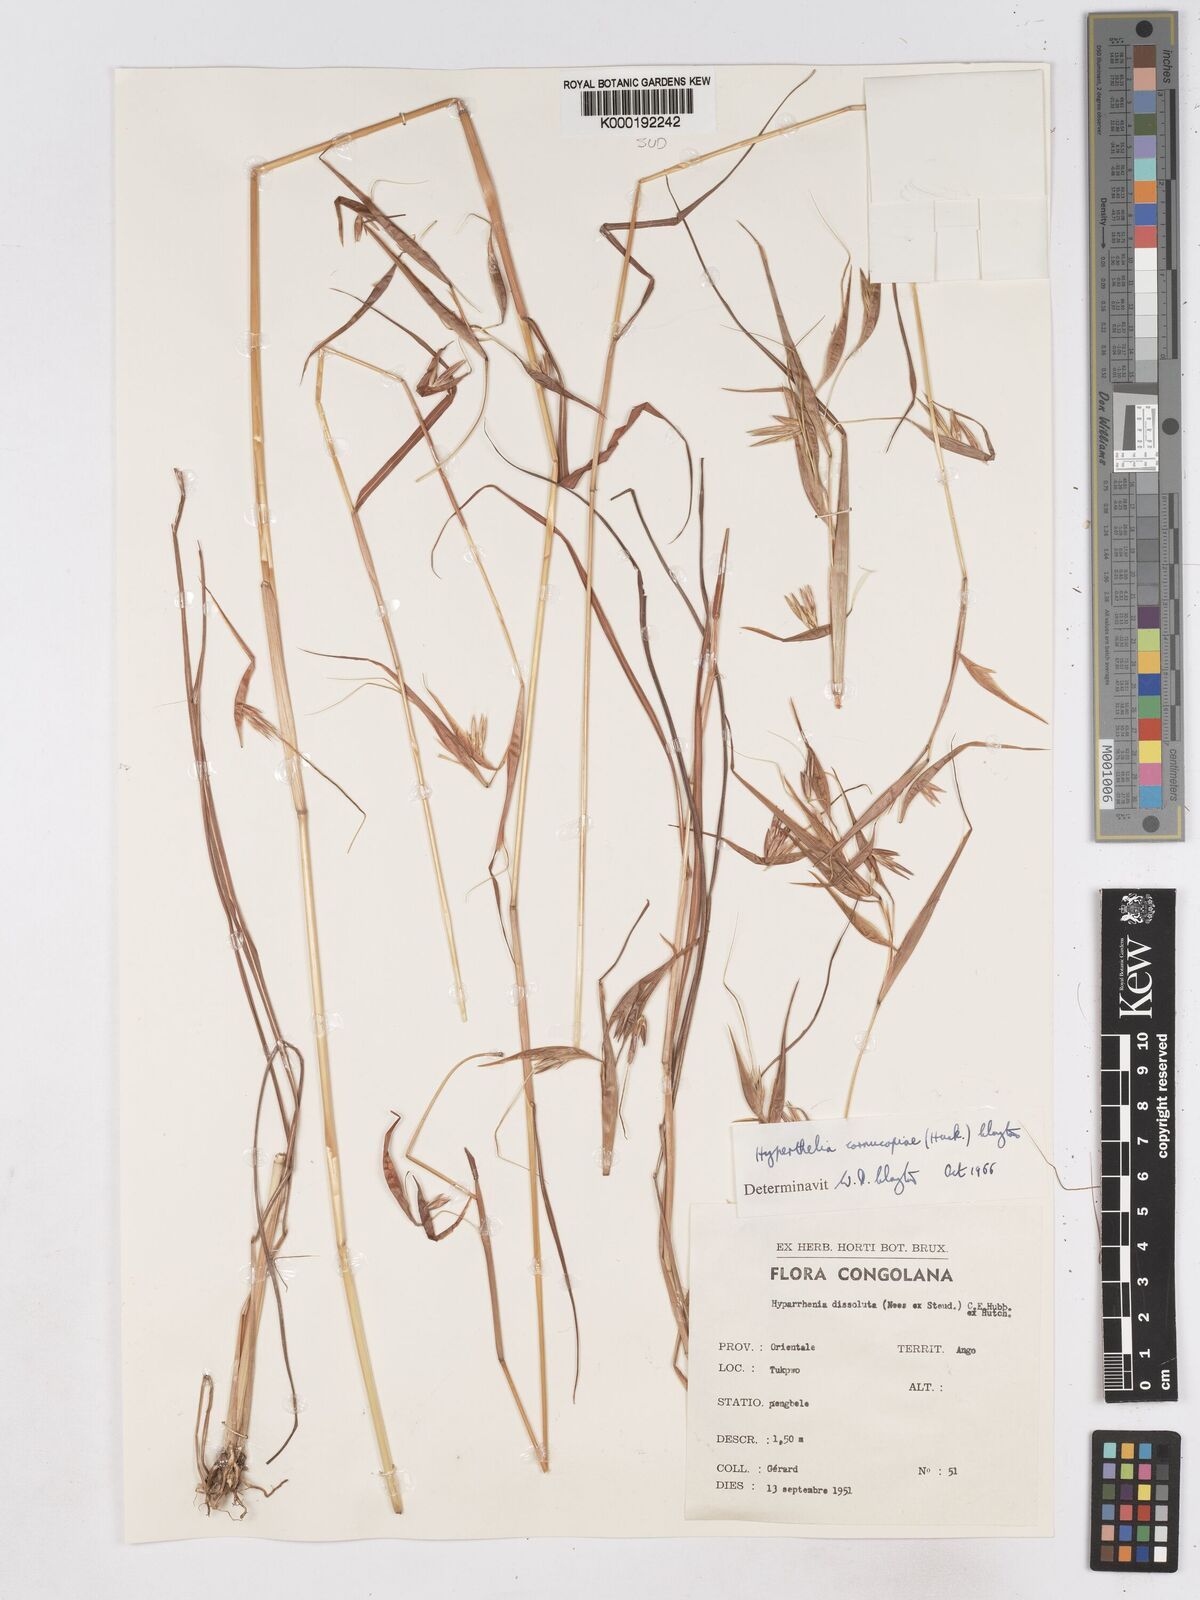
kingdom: Plantae
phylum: Tracheophyta
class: Liliopsida
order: Poales
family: Poaceae
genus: Hyperthelia
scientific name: Hyperthelia cornucopiae
